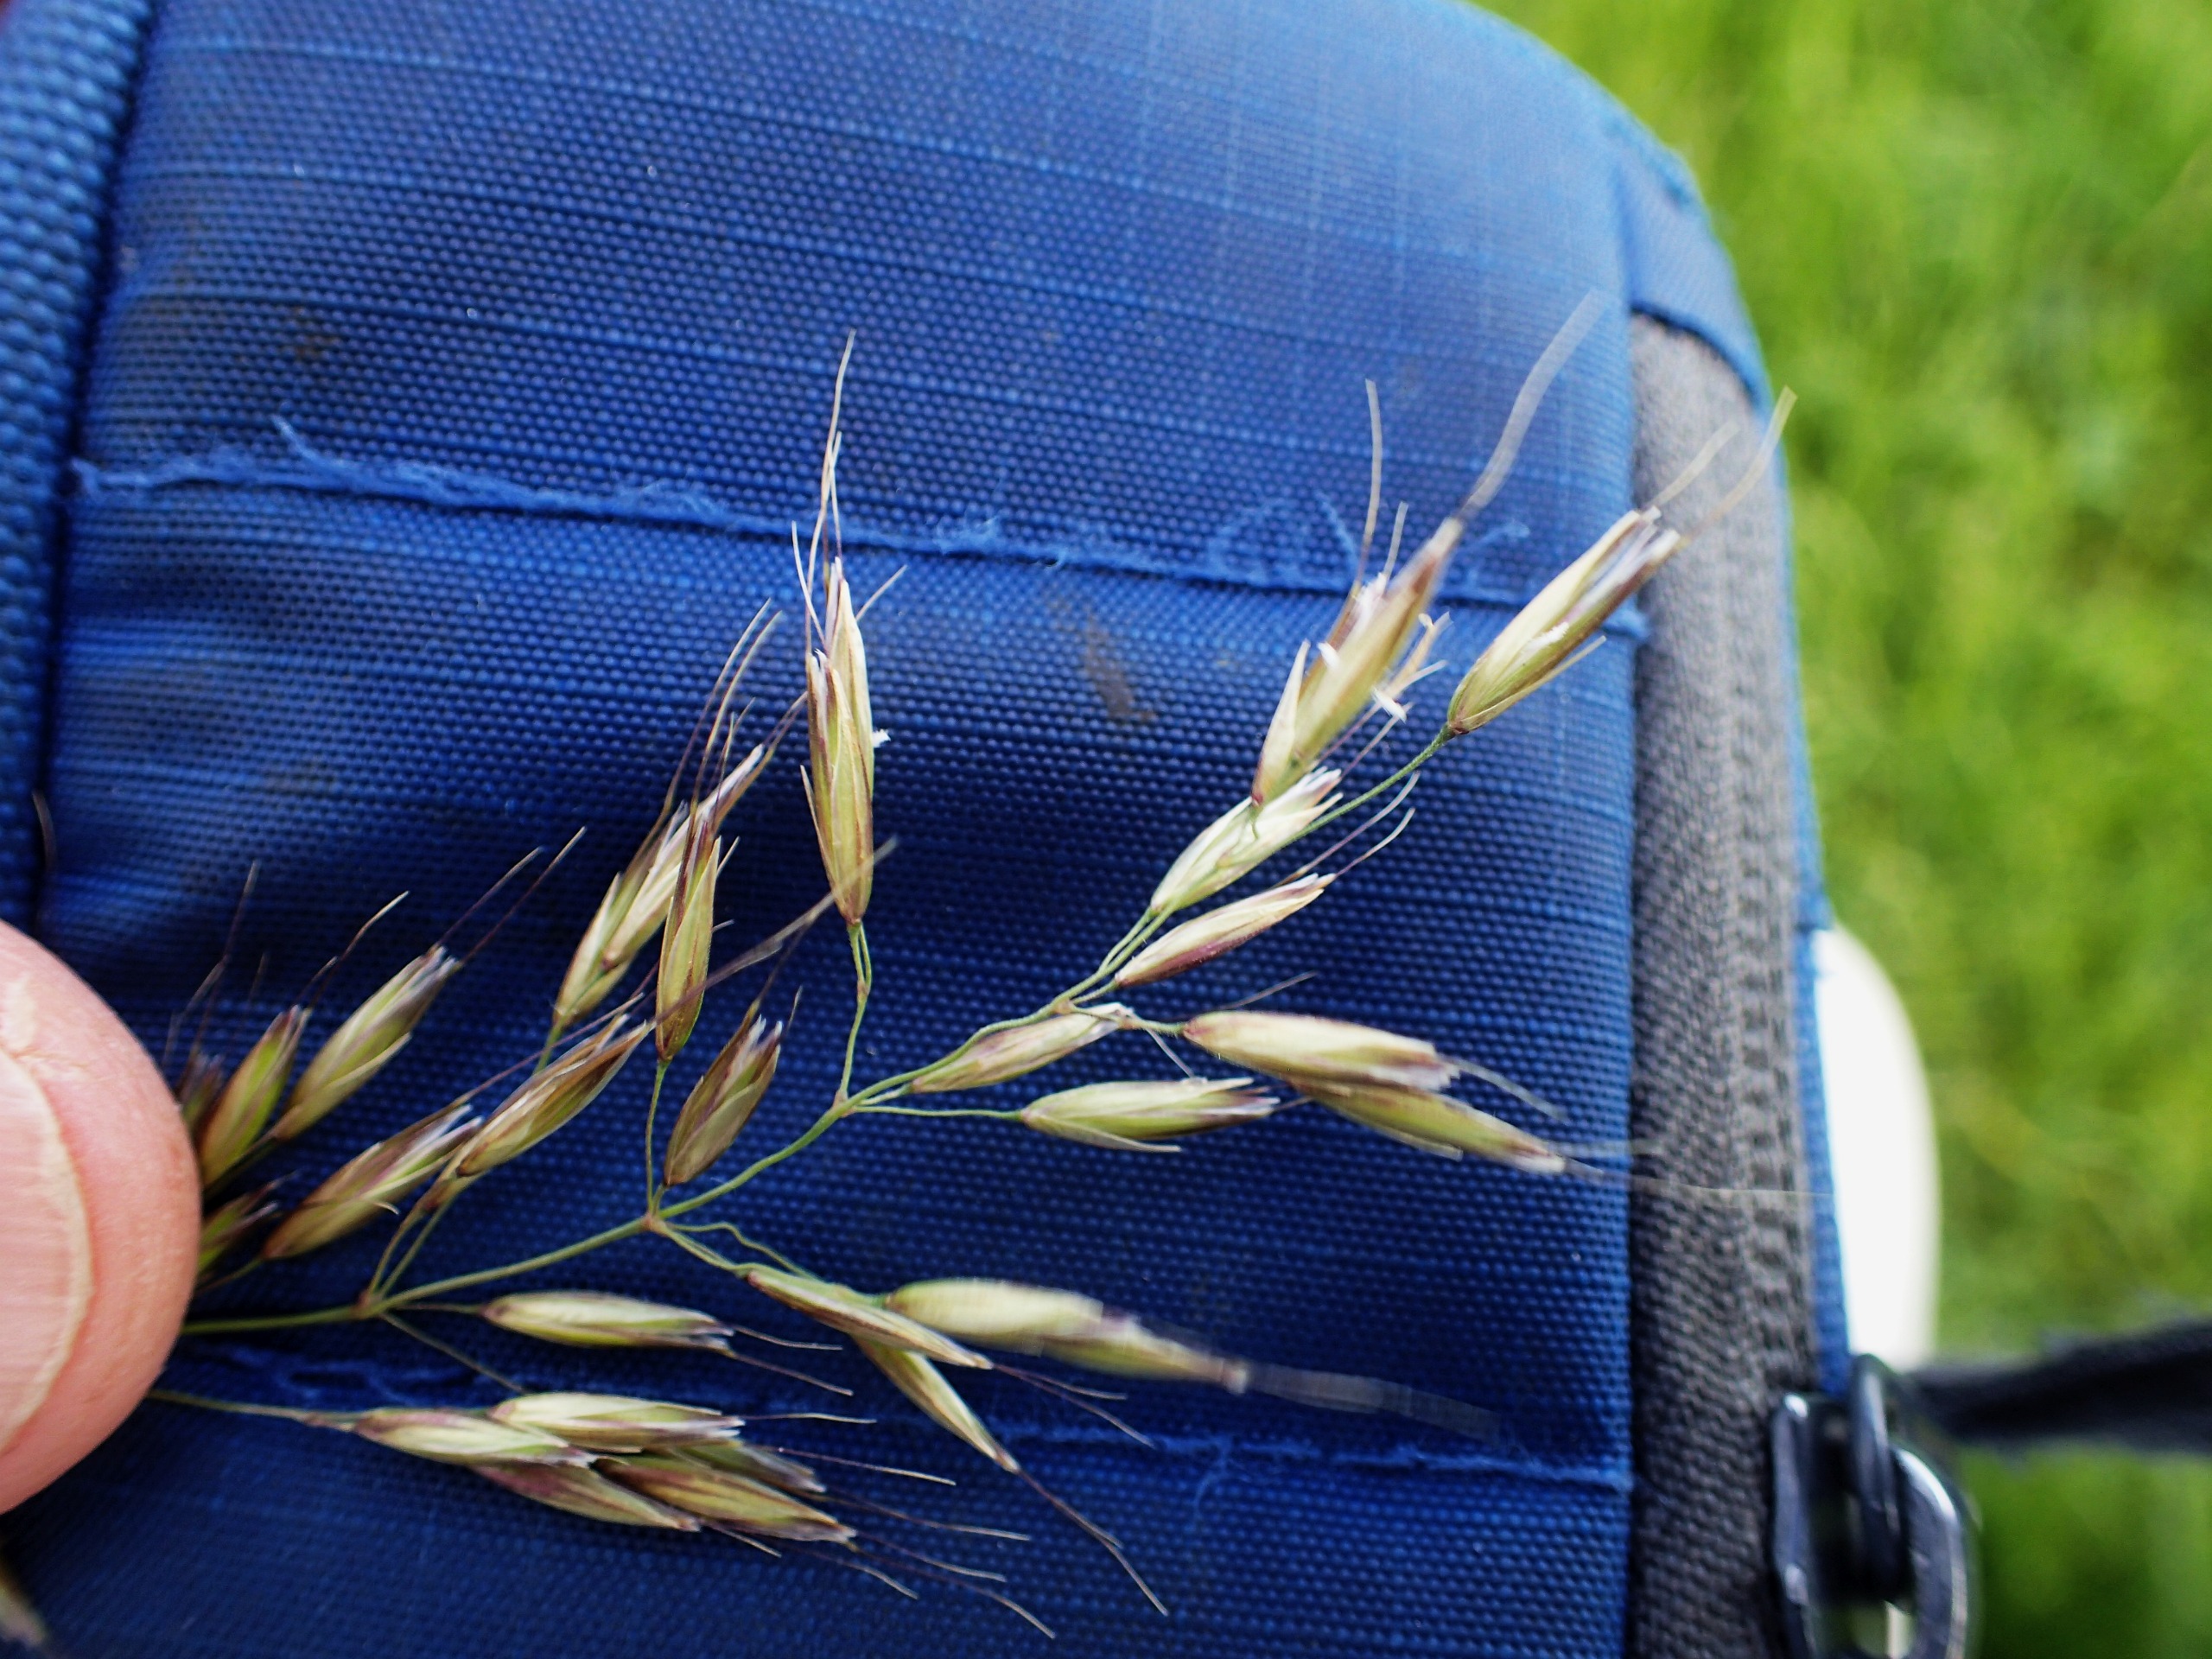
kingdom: Plantae
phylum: Tracheophyta
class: Liliopsida
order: Poales
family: Poaceae
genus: Avenula
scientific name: Avenula pubescens
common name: Dunet havre
